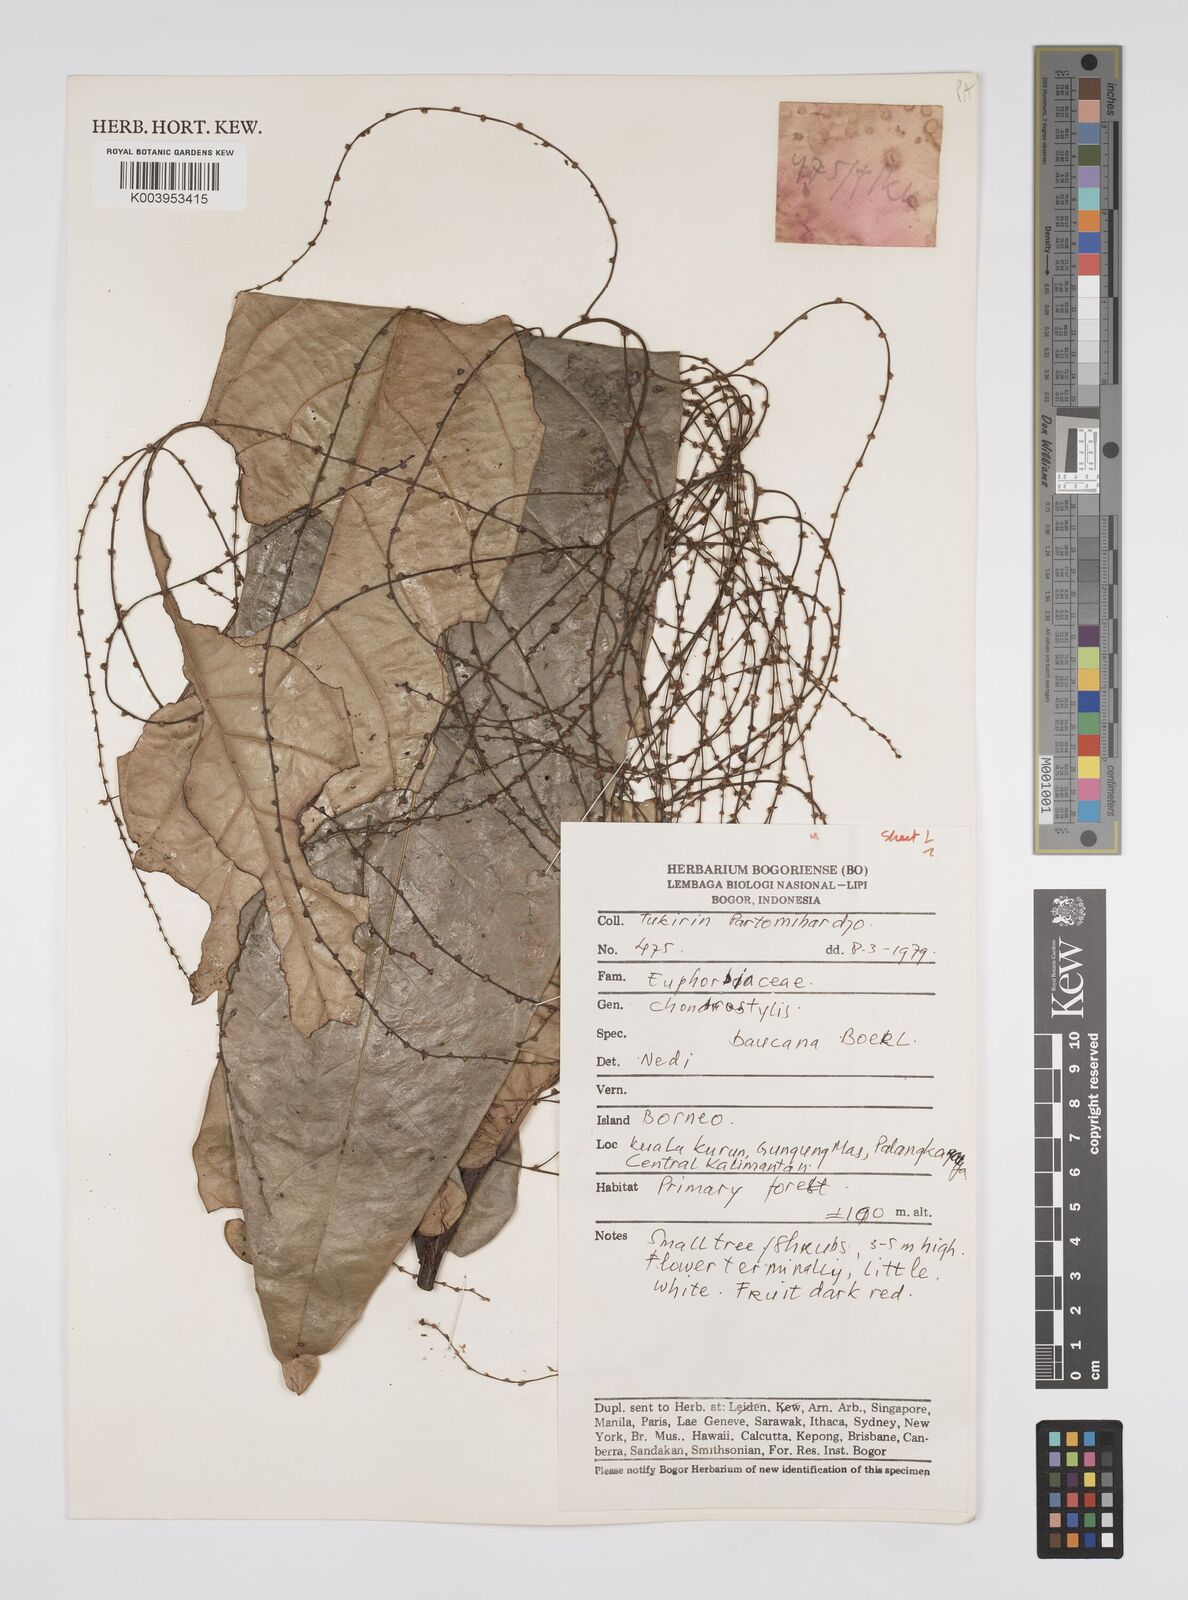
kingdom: Plantae
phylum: Tracheophyta
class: Magnoliopsida
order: Malpighiales
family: Euphorbiaceae
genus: Chondrostylis
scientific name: Chondrostylis bancana
